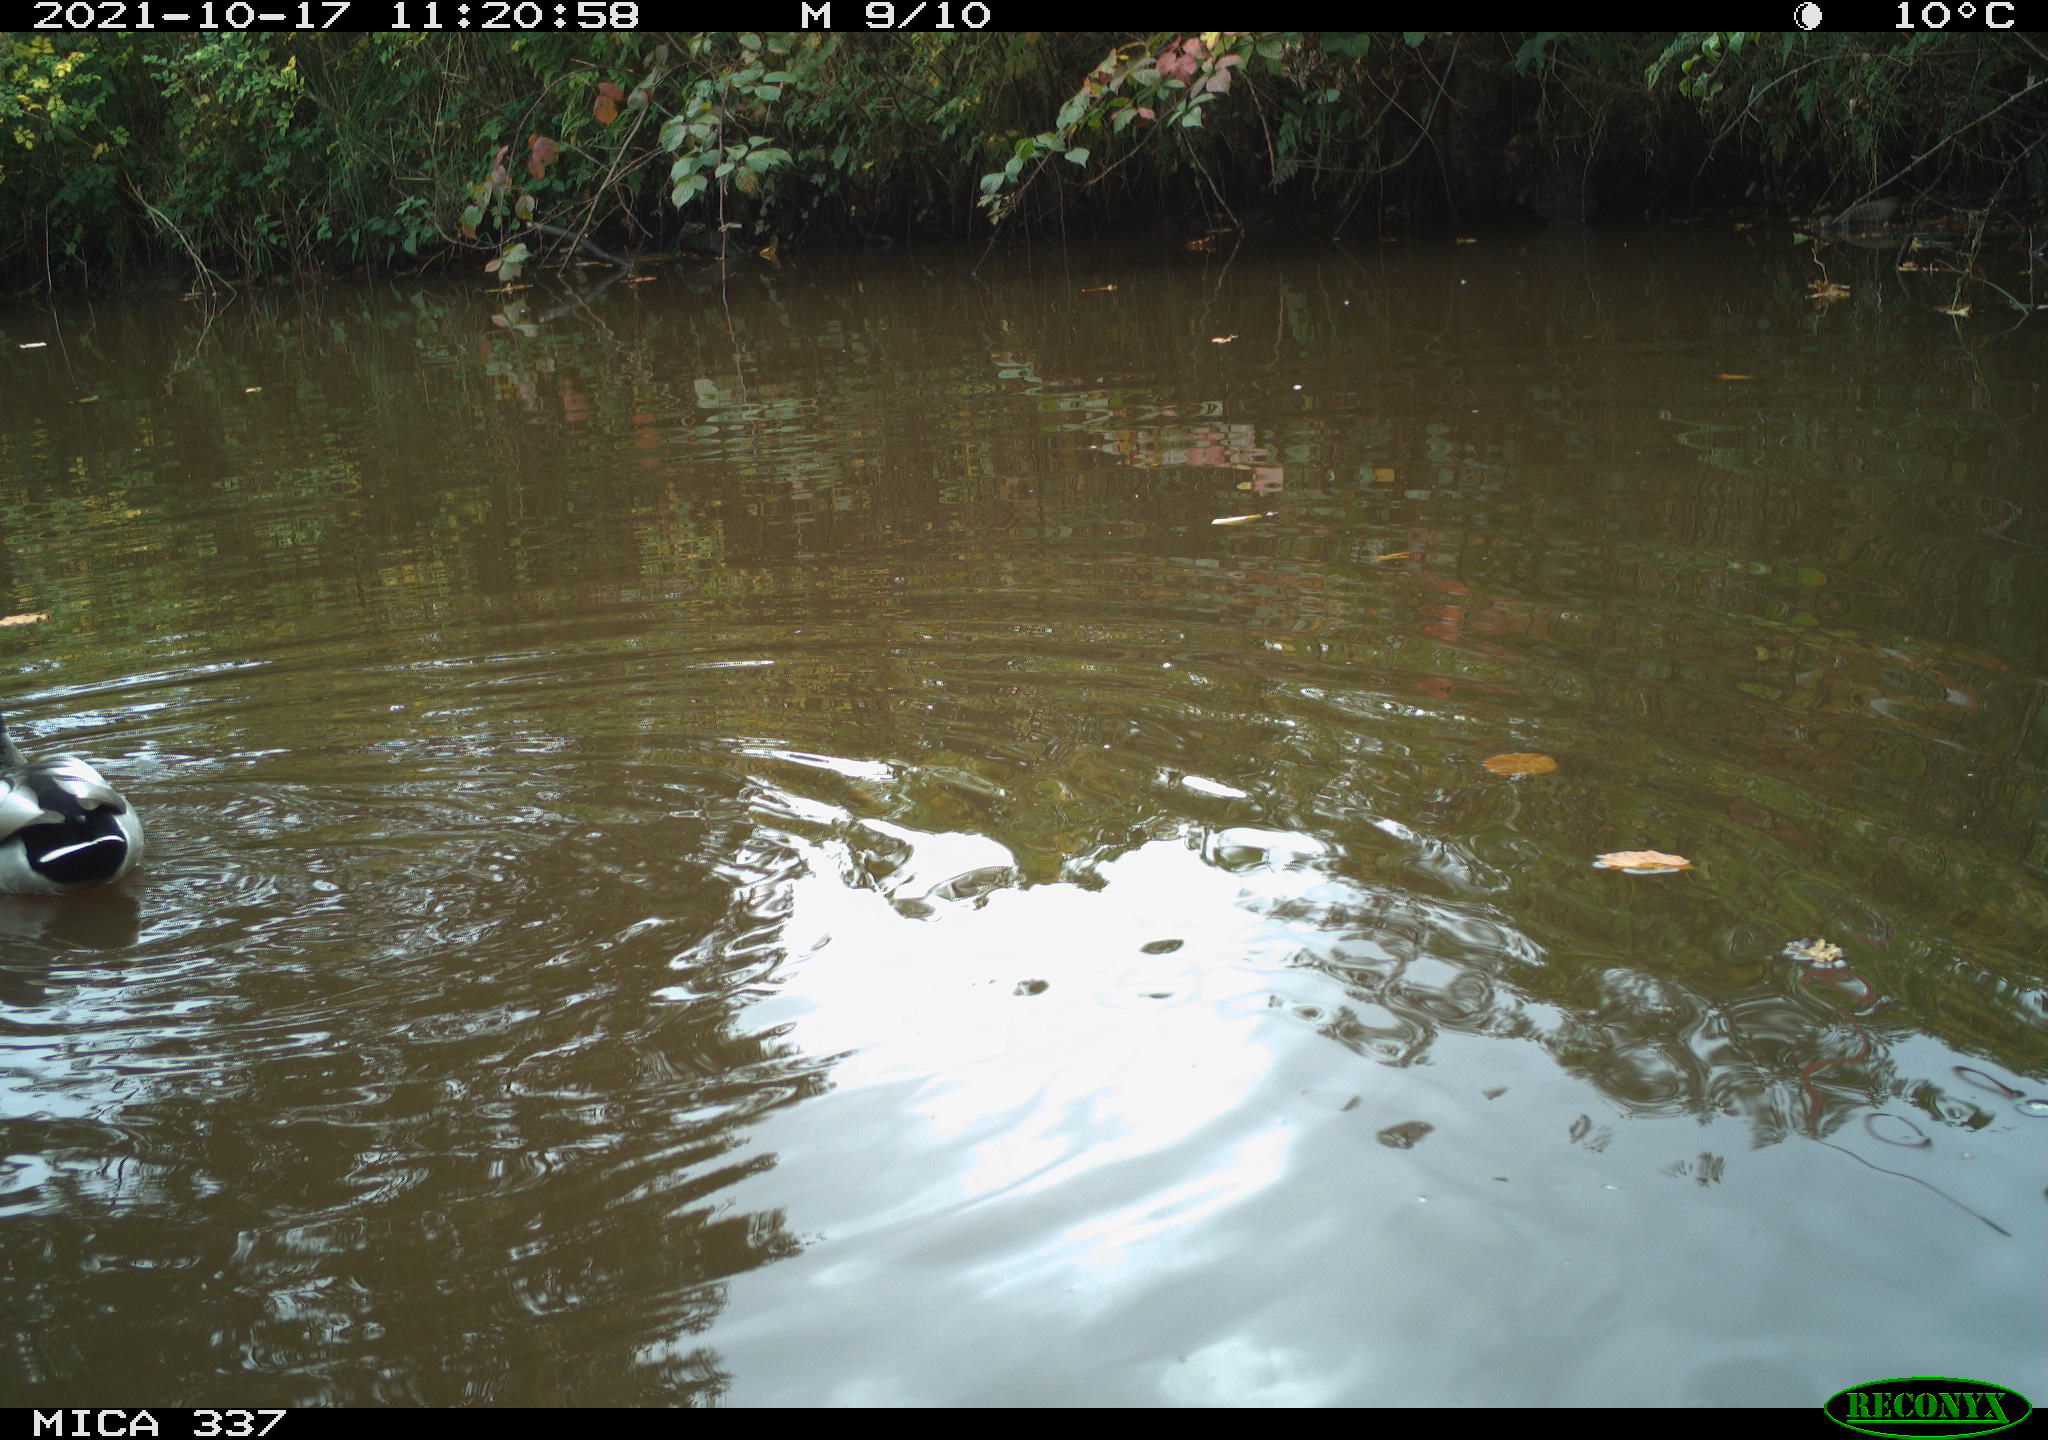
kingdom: Animalia
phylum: Chordata
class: Aves
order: Anseriformes
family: Anatidae
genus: Anas
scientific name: Anas platyrhynchos
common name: Mallard
